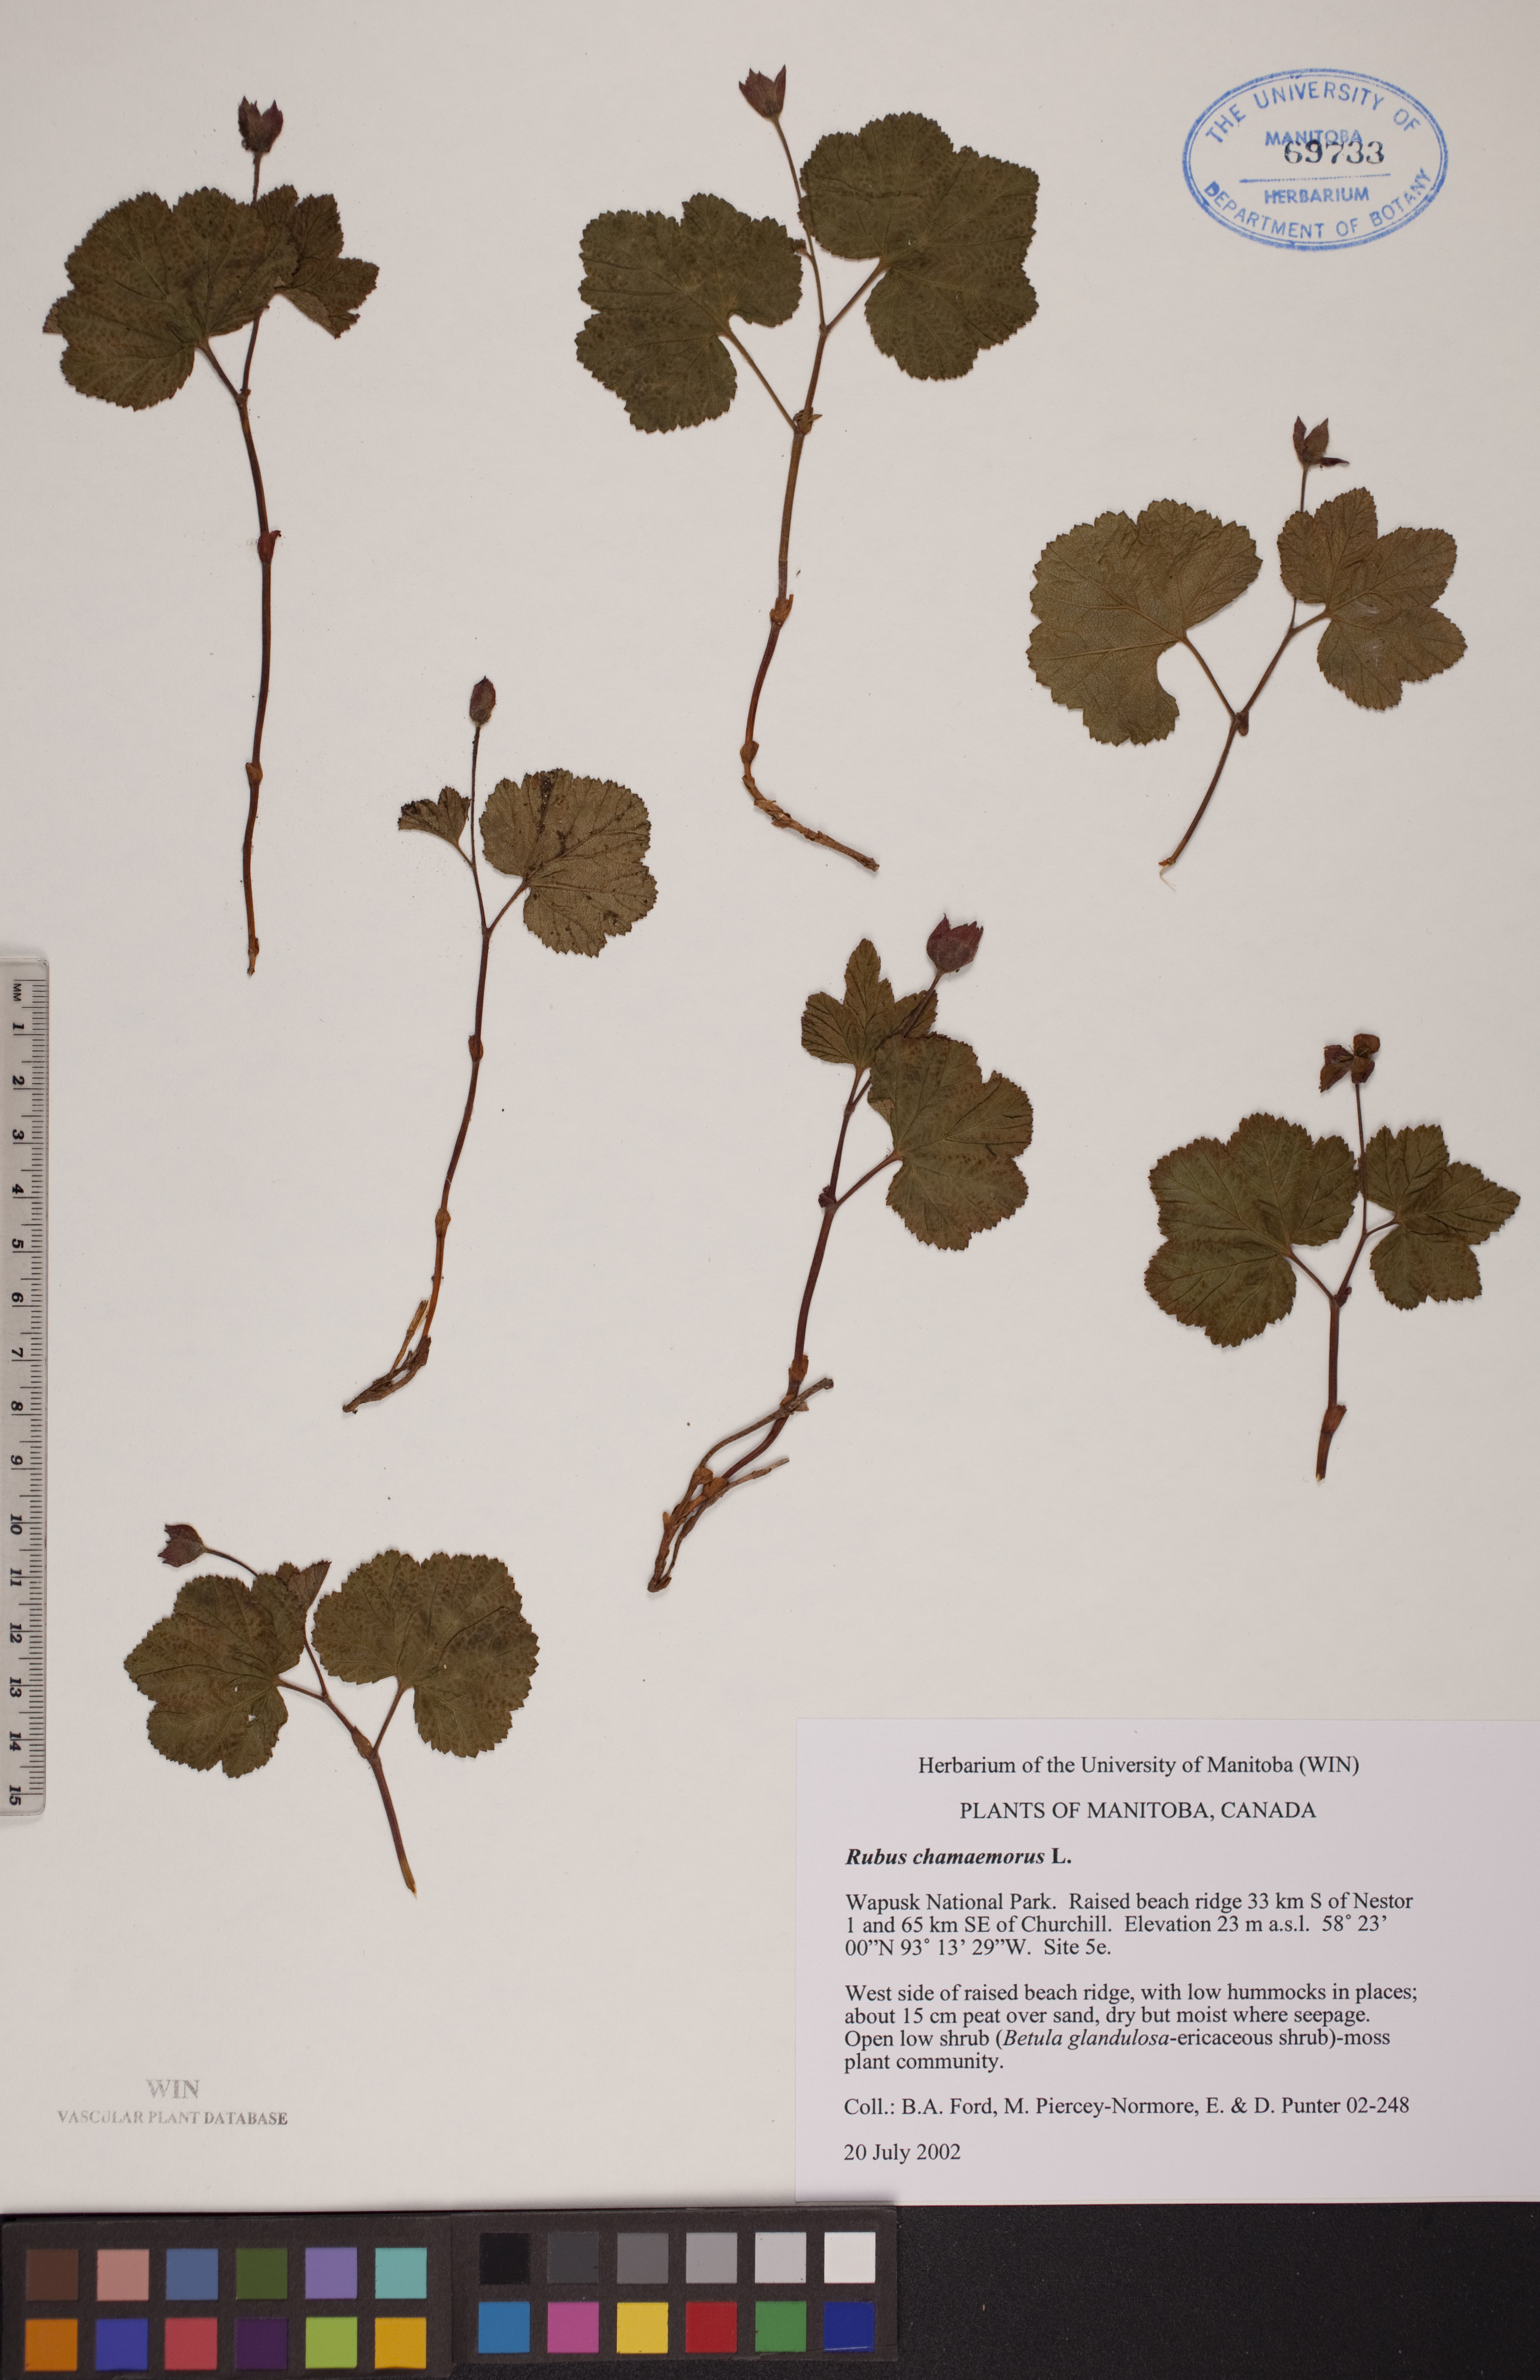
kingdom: Plantae
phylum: Tracheophyta
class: Magnoliopsida
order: Rosales
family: Rosaceae
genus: Rubus
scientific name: Rubus chamaemorus
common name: Cloudberry
